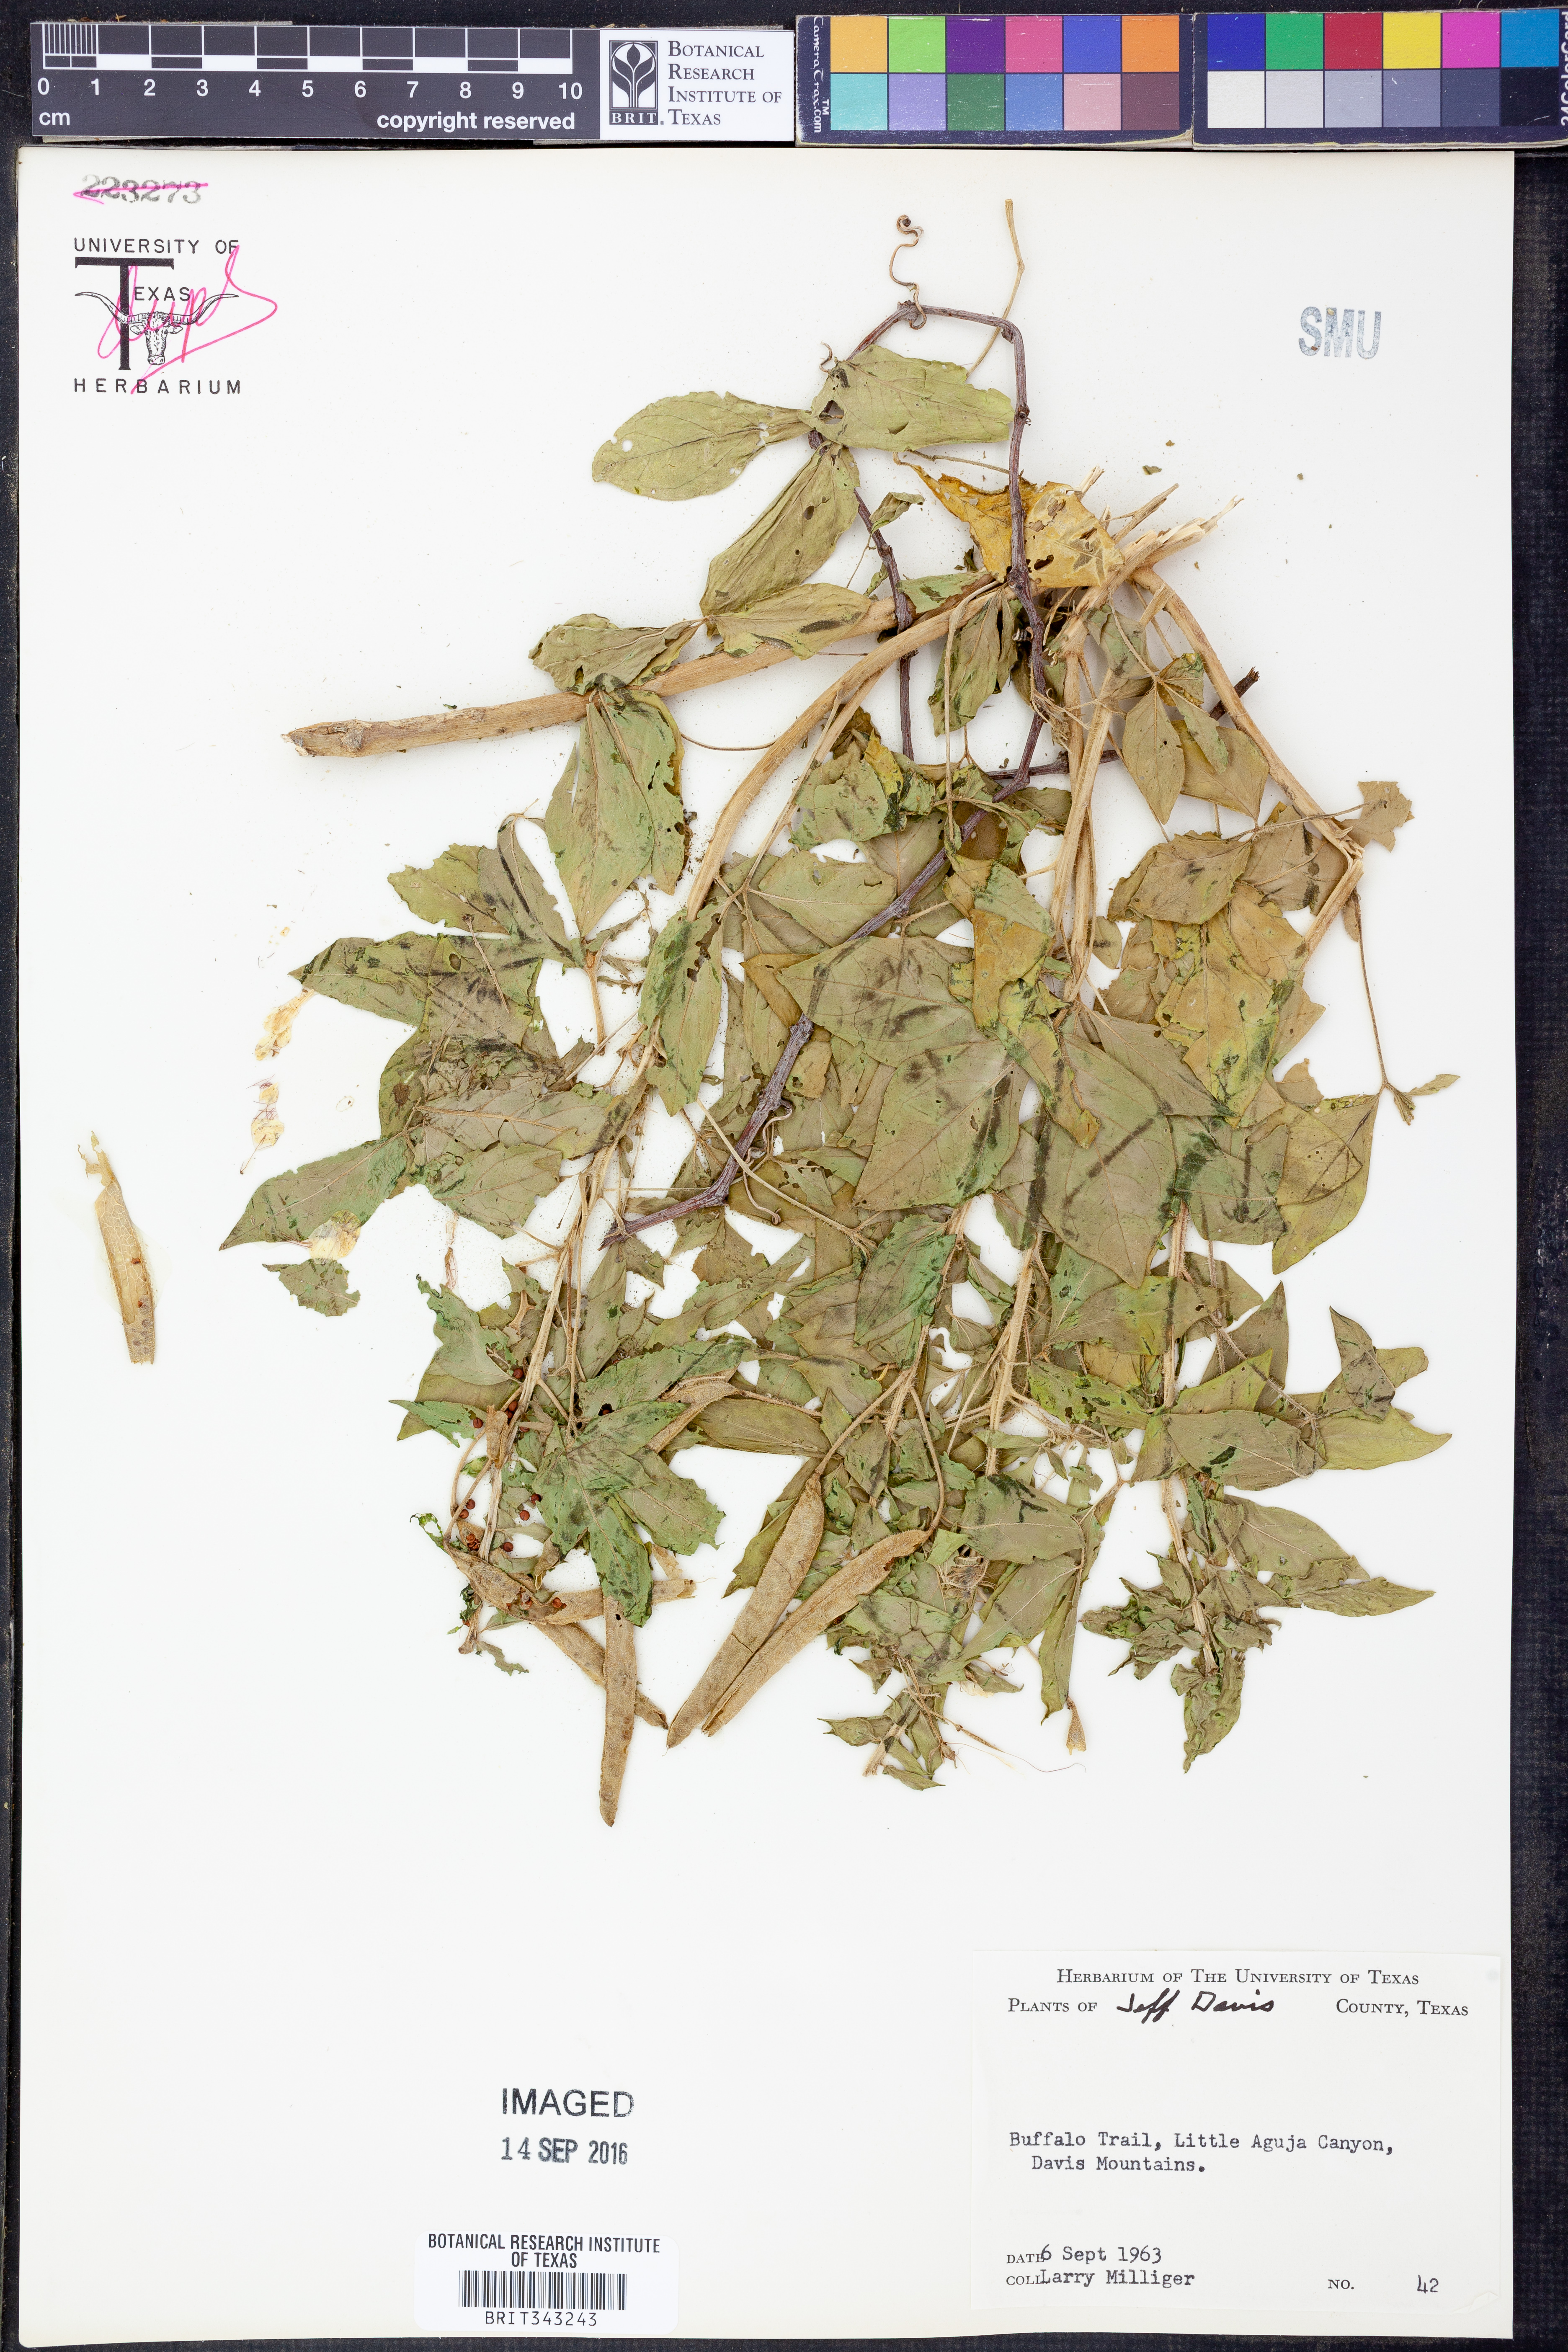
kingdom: Plantae
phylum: Tracheophyta
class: Magnoliopsida
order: Brassicales
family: Cleomaceae
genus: Polanisia
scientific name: Polanisia
